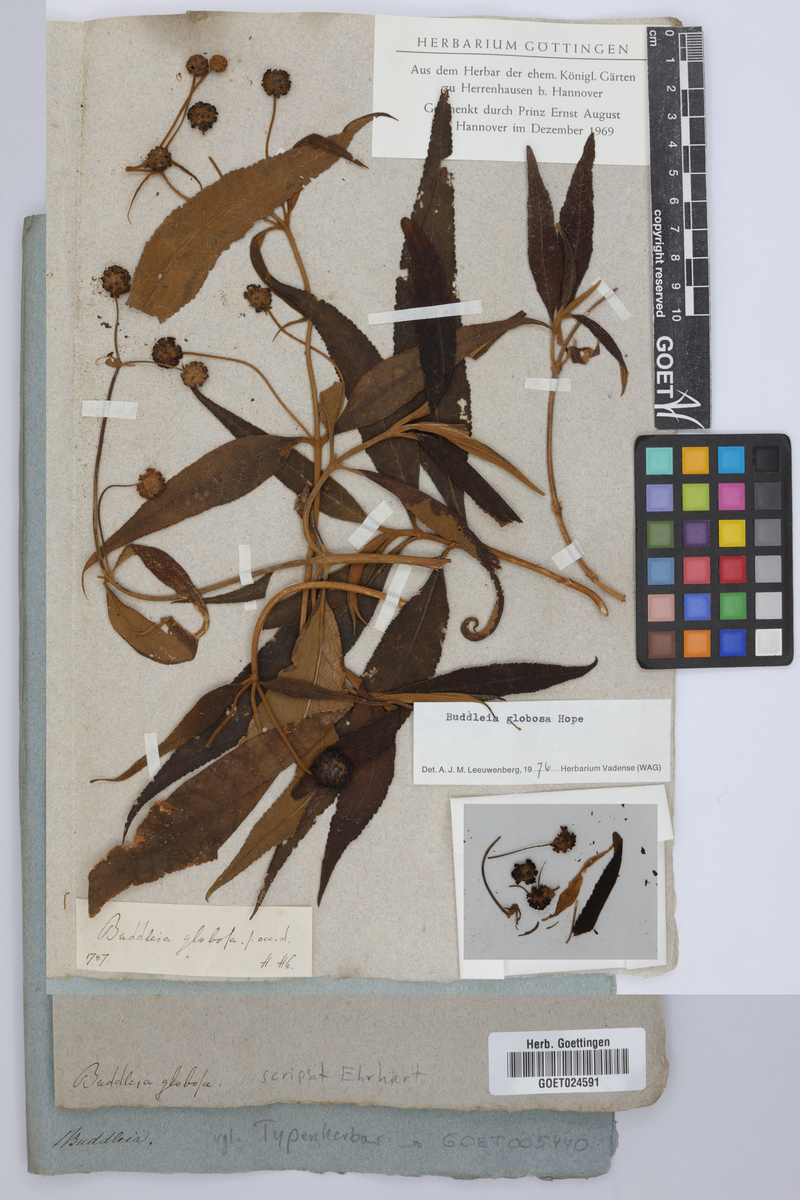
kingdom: Plantae
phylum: Tracheophyta
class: Magnoliopsida
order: Lamiales
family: Scrophulariaceae
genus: Buddleja
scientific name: Buddleja globosa
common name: Orange-ball-tree
